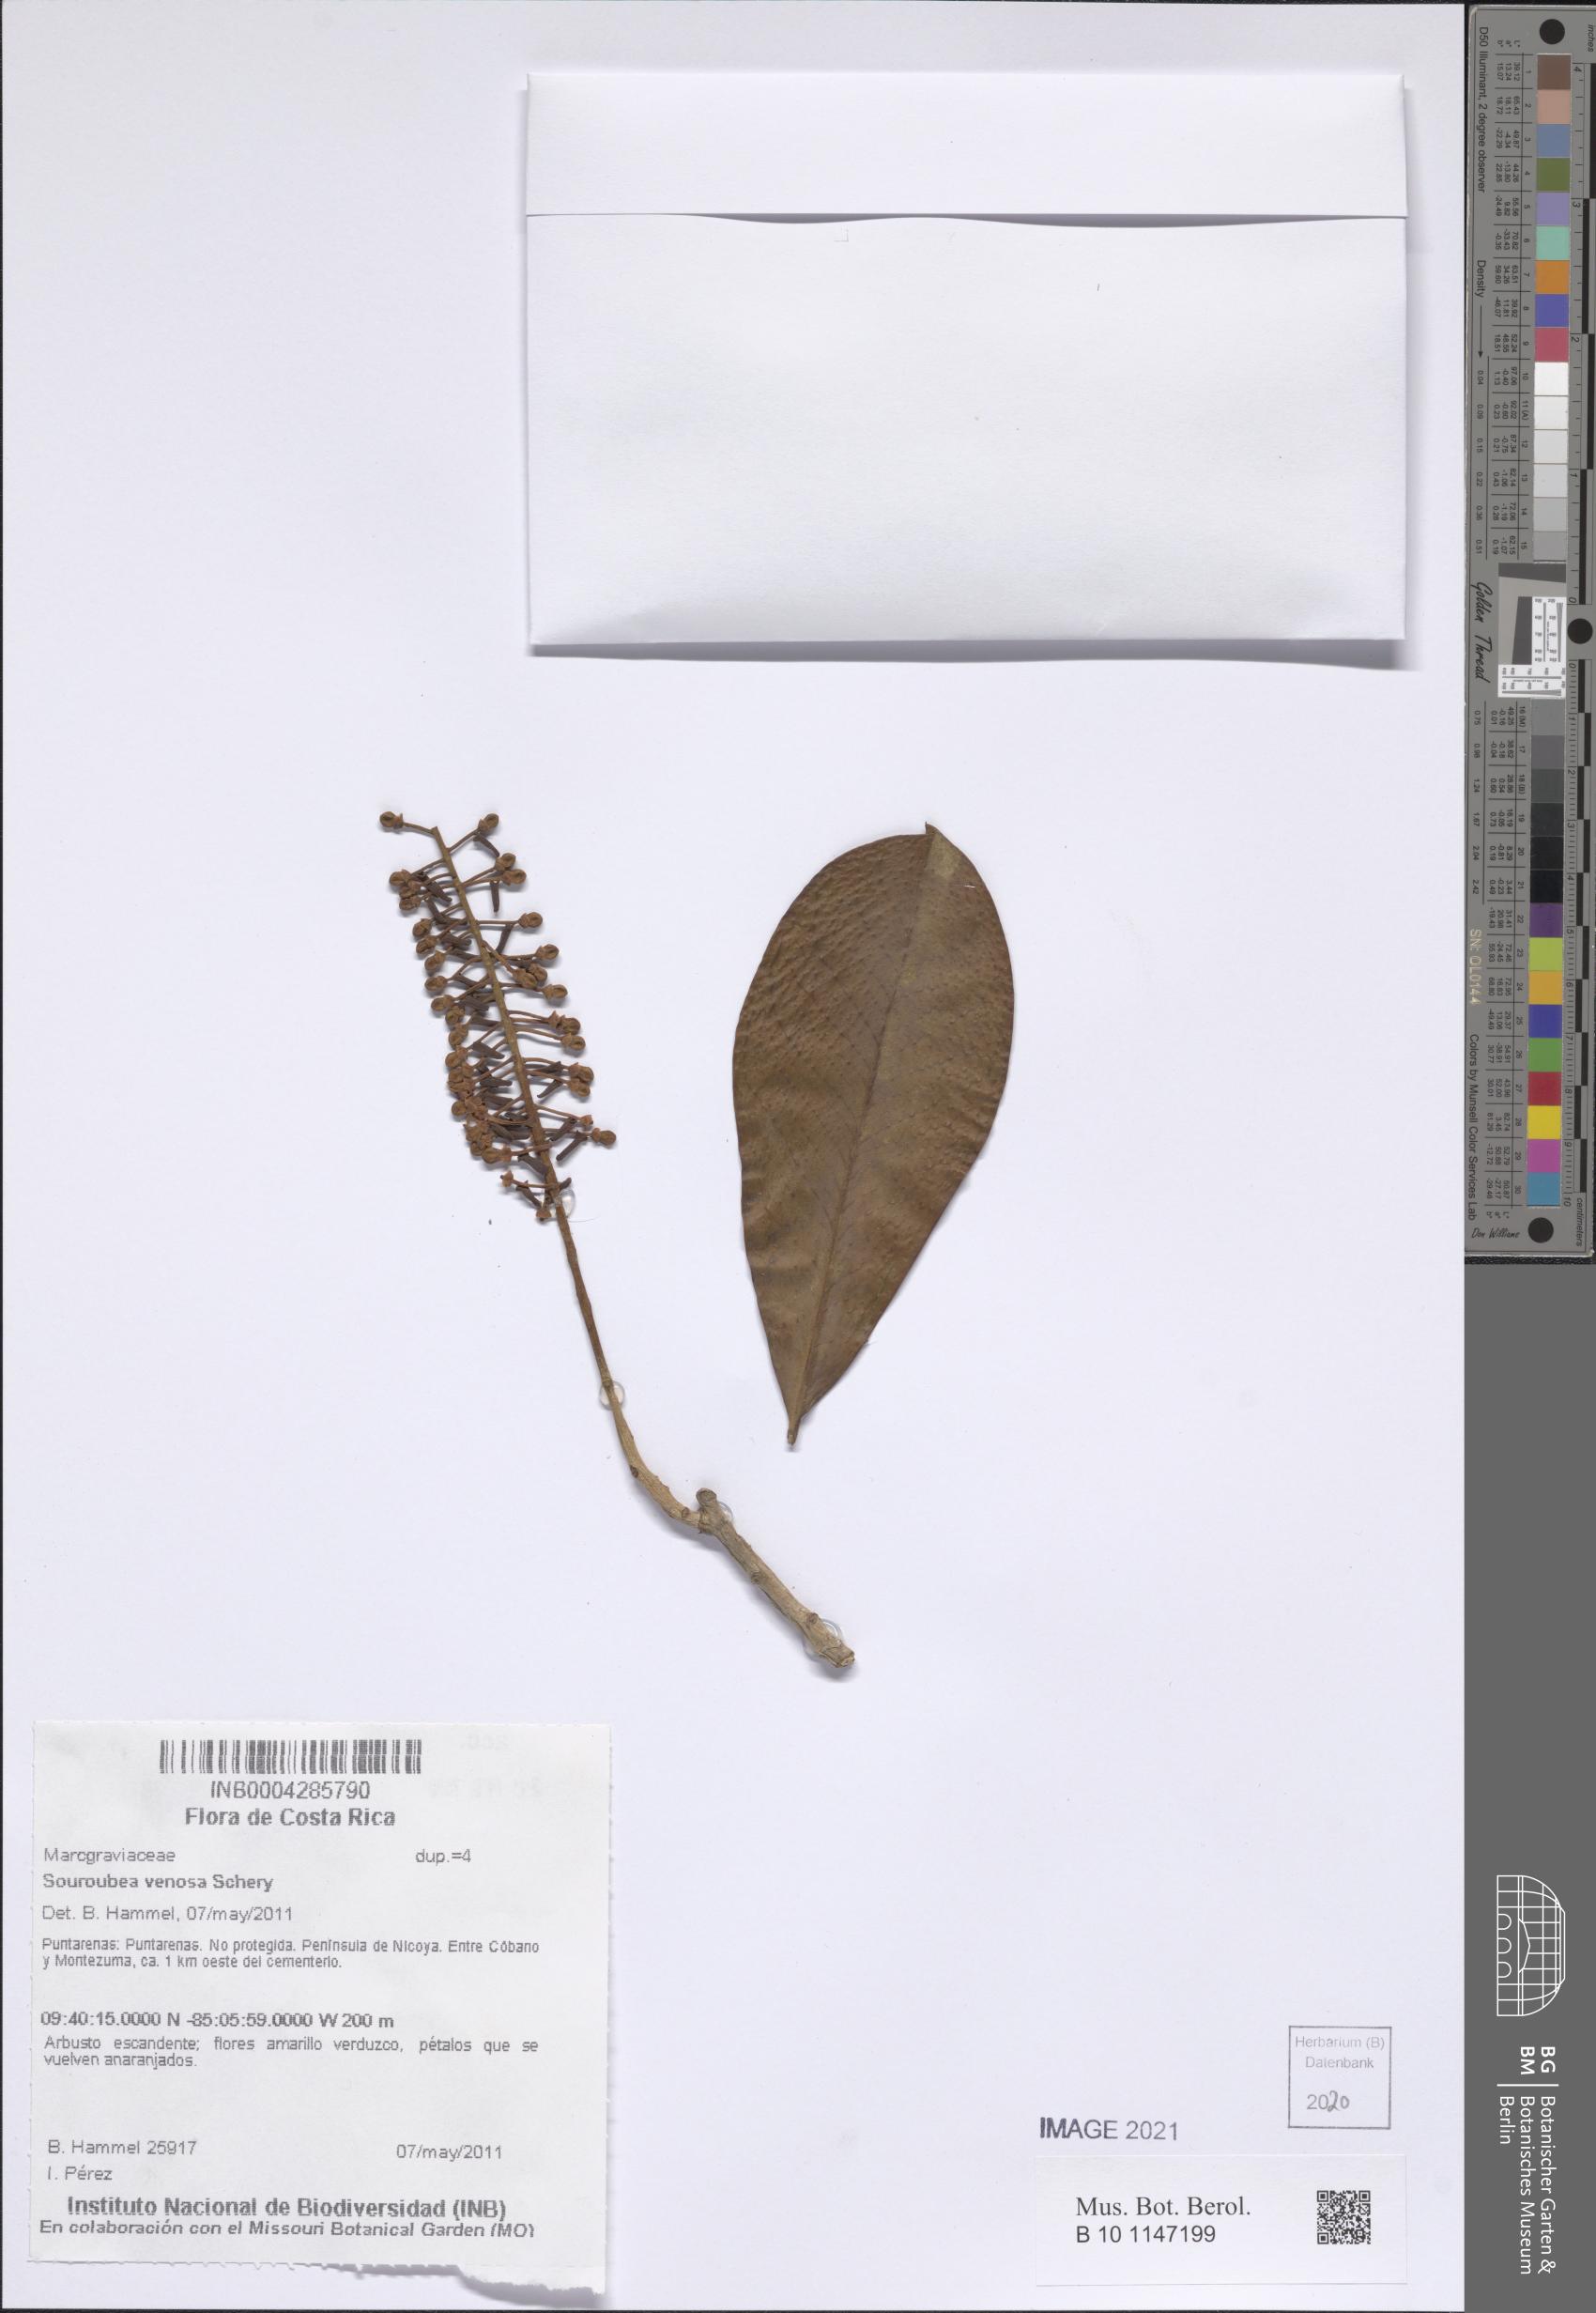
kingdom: Plantae
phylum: Tracheophyta
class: Magnoliopsida
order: Ericales
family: Marcgraviaceae
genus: Souroubea
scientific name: Souroubea venosa
